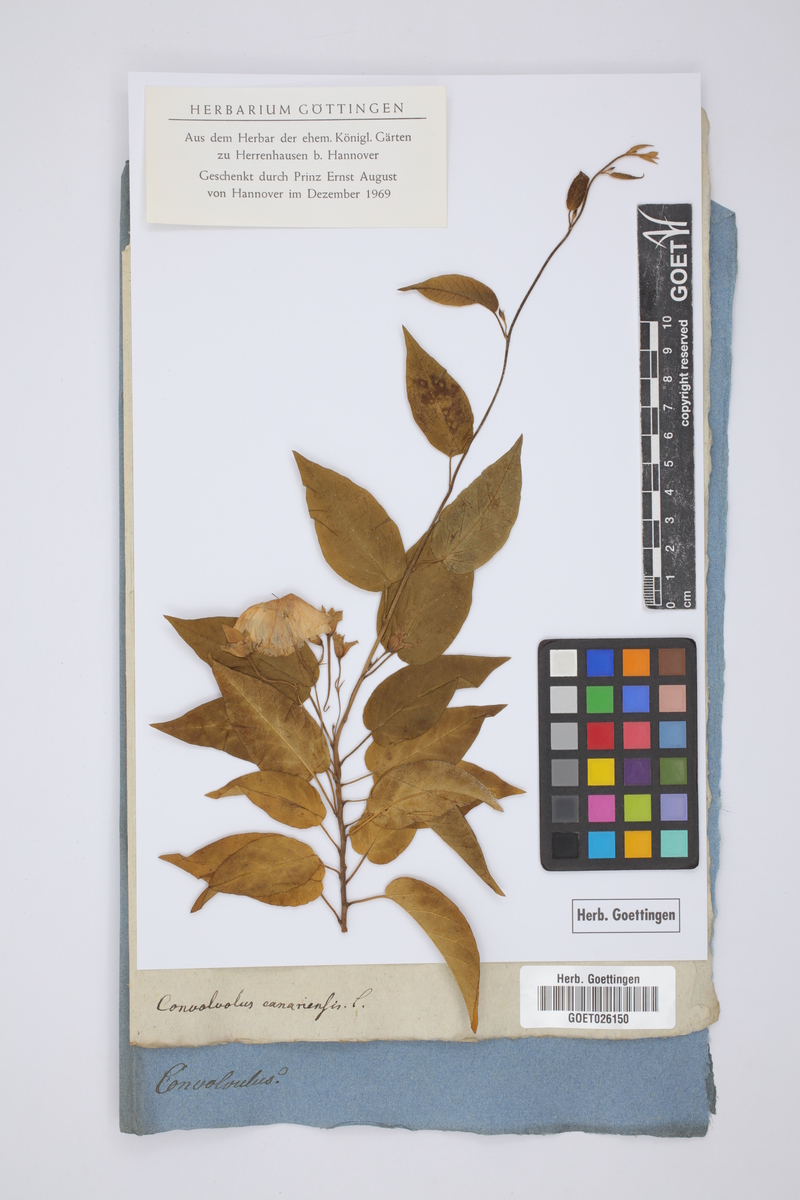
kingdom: Plantae
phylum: Tracheophyta
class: Magnoliopsida
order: Solanales
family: Convolvulaceae
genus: Convolvulus
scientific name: Convolvulus canariensis
